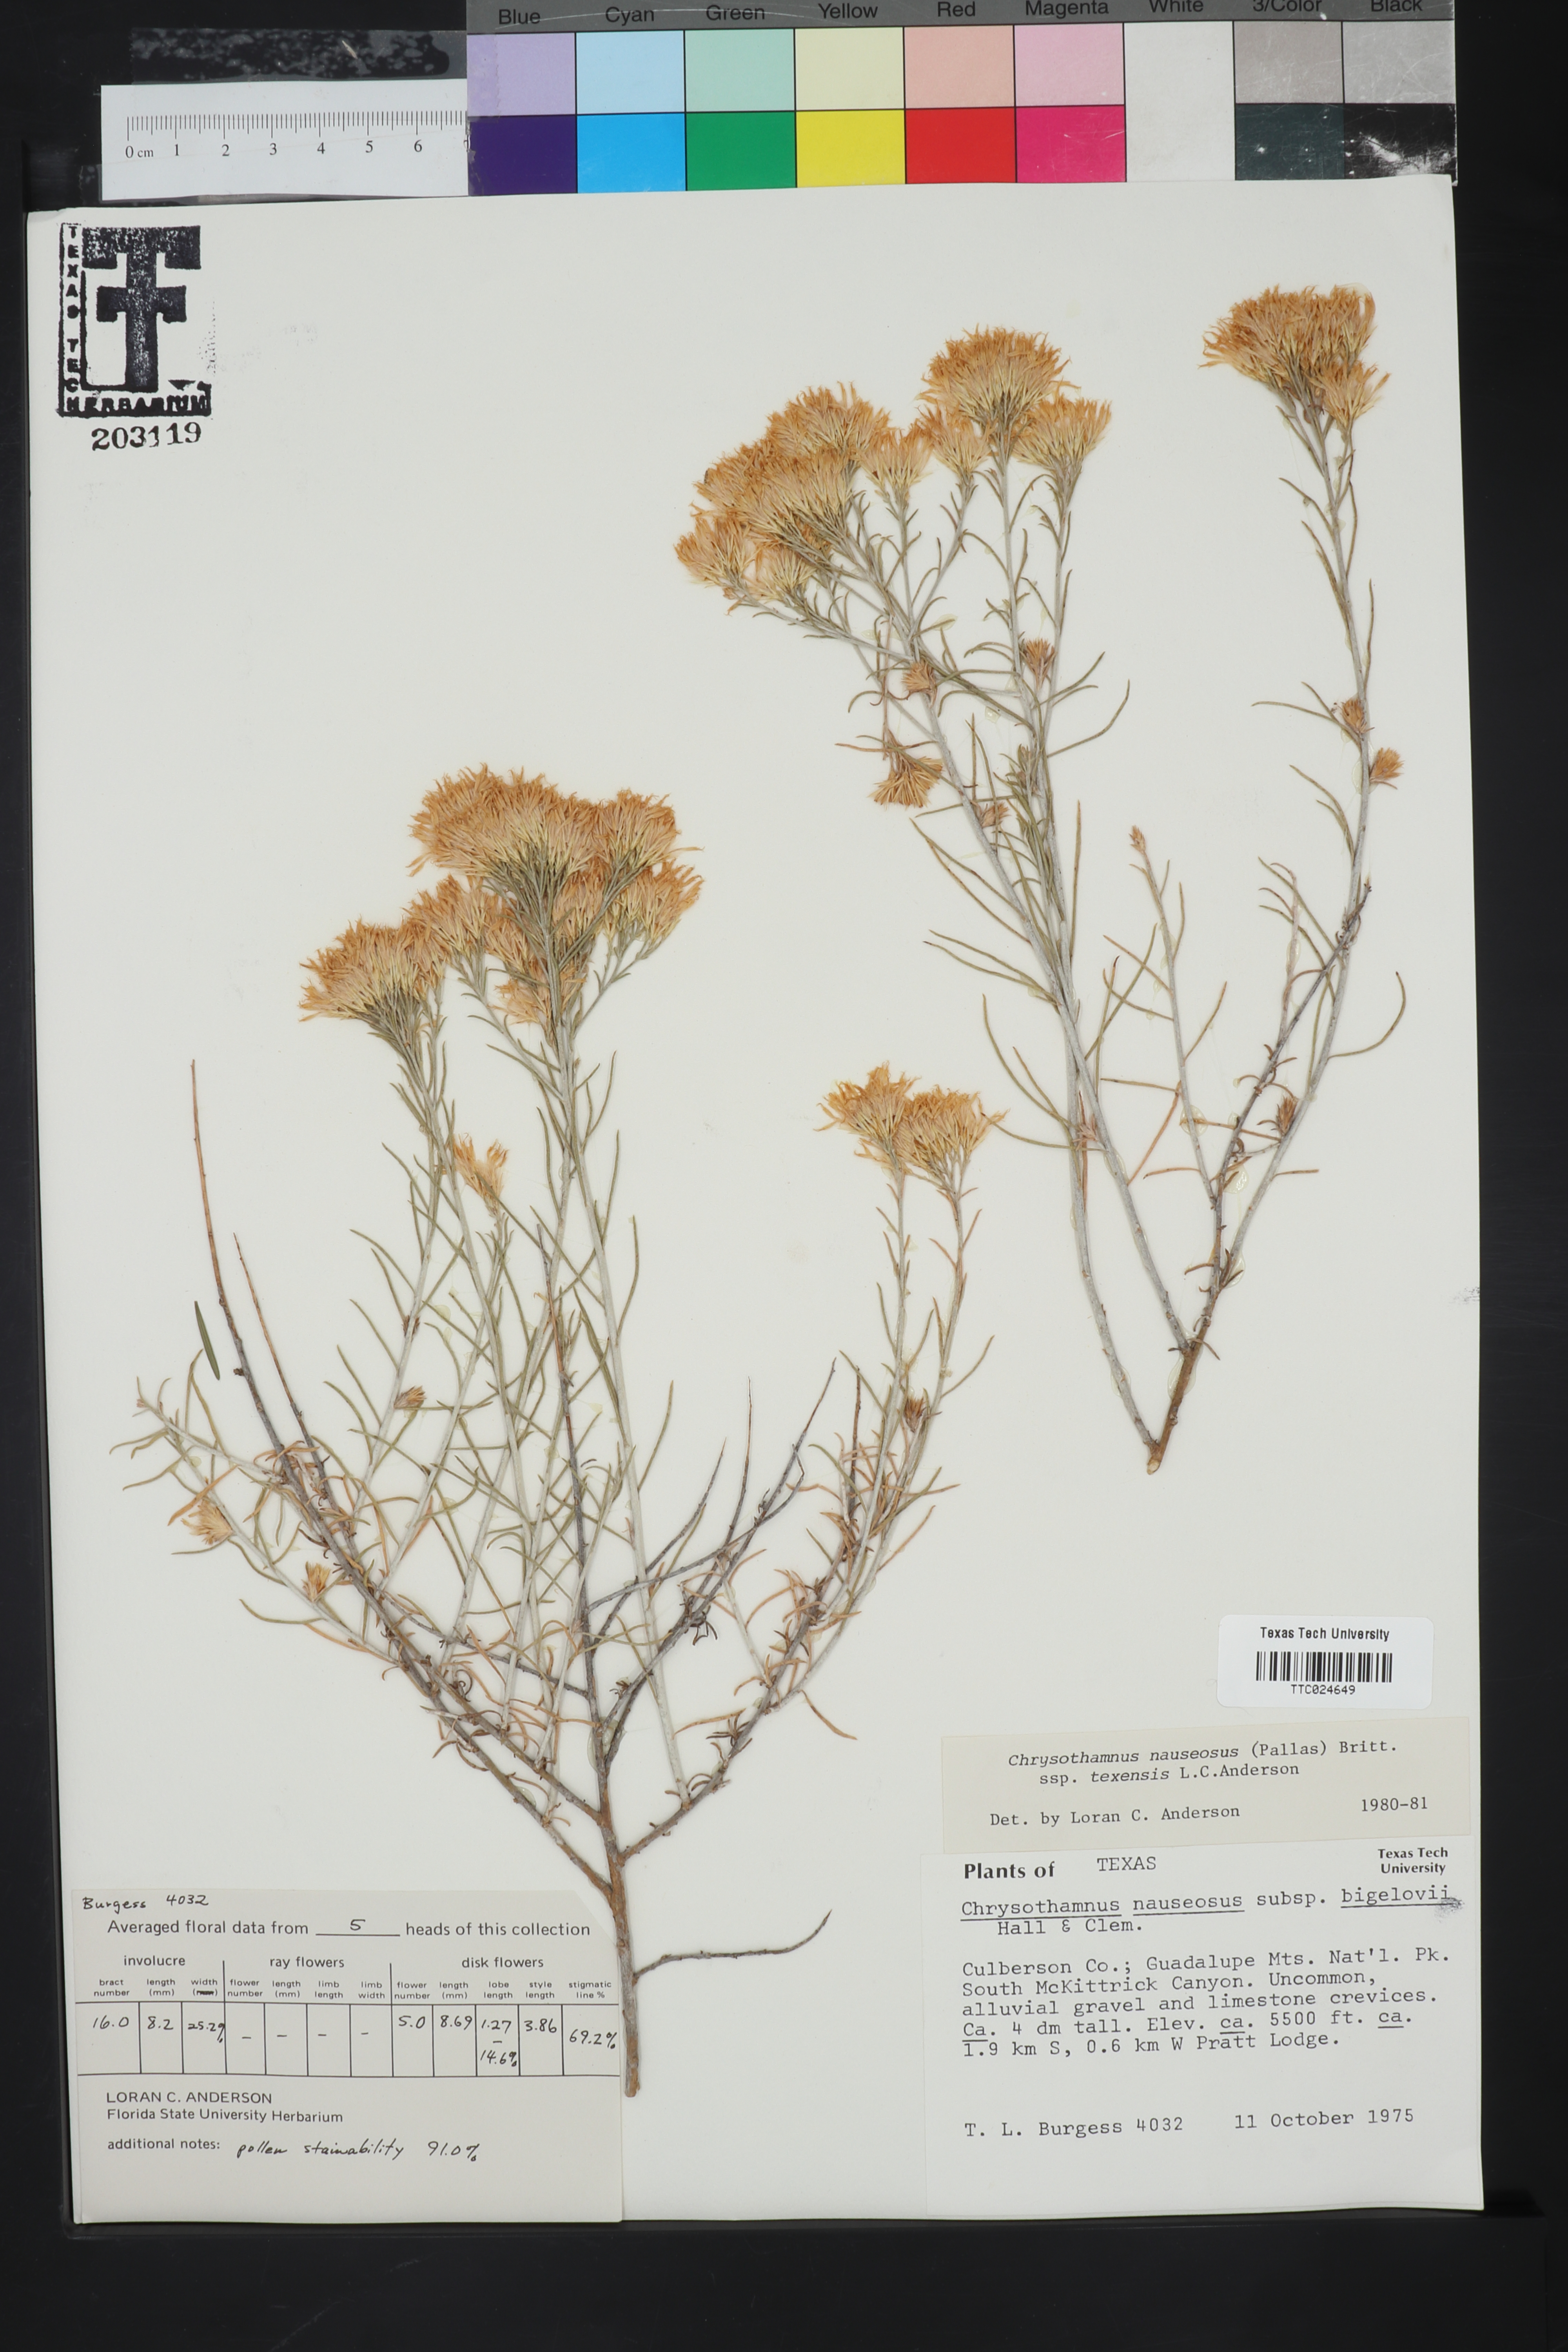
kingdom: Plantae
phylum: Tracheophyta
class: Magnoliopsida
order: Asterales
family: Asteraceae
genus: Ericameria
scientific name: Ericameria nauseosa
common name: Rubber rabbitbrush
